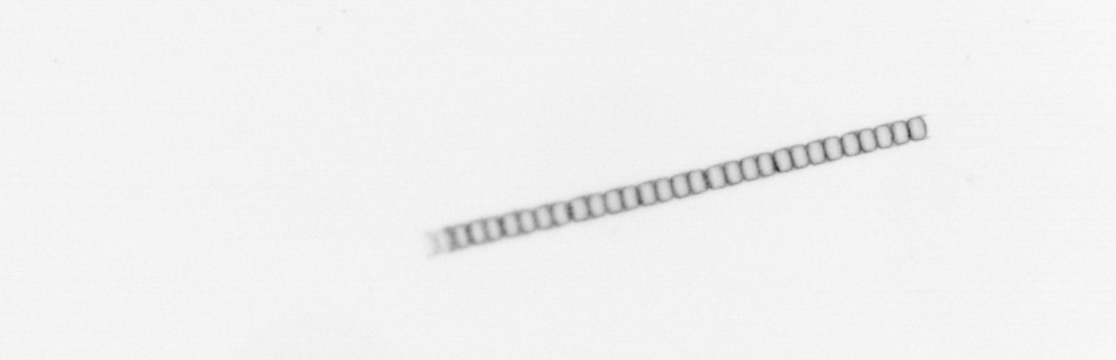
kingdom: Chromista
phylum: Ochrophyta
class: Bacillariophyceae
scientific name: Bacillariophyceae
